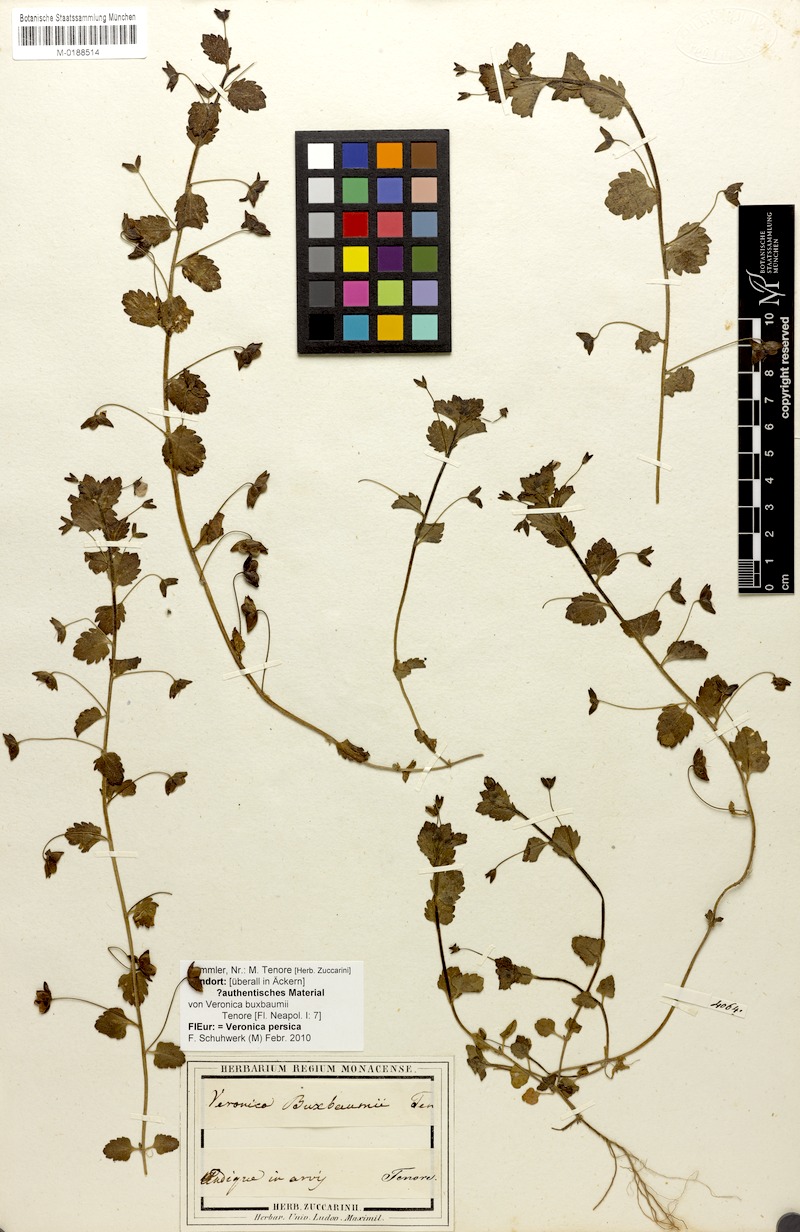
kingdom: Plantae
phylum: Tracheophyta
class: Magnoliopsida
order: Lamiales
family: Plantaginaceae
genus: Veronica
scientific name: Veronica persica
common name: Common field-speedwell
